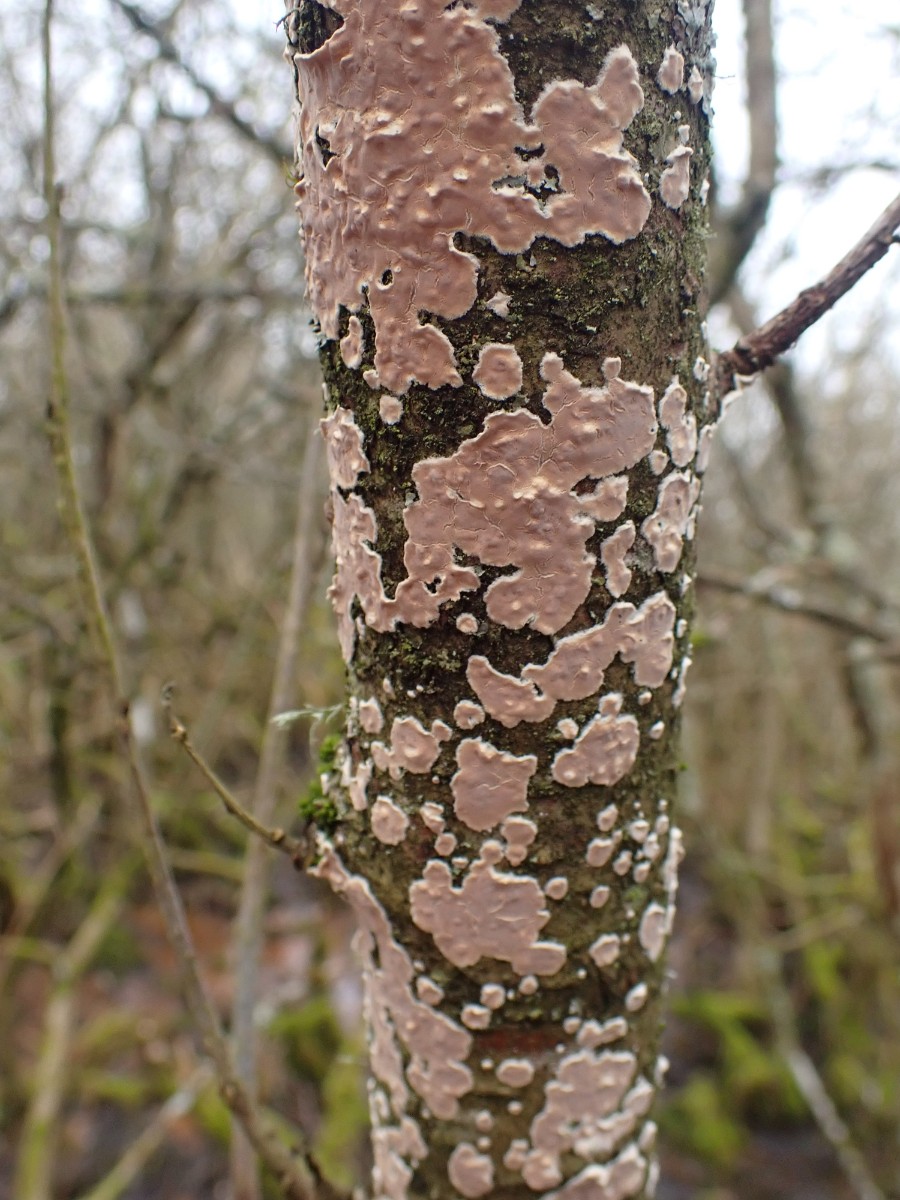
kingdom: Fungi
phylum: Basidiomycota
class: Agaricomycetes
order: Agaricales
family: Physalacriaceae
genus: Cylindrobasidium
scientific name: Cylindrobasidium evolvens
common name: sprækkehinde
